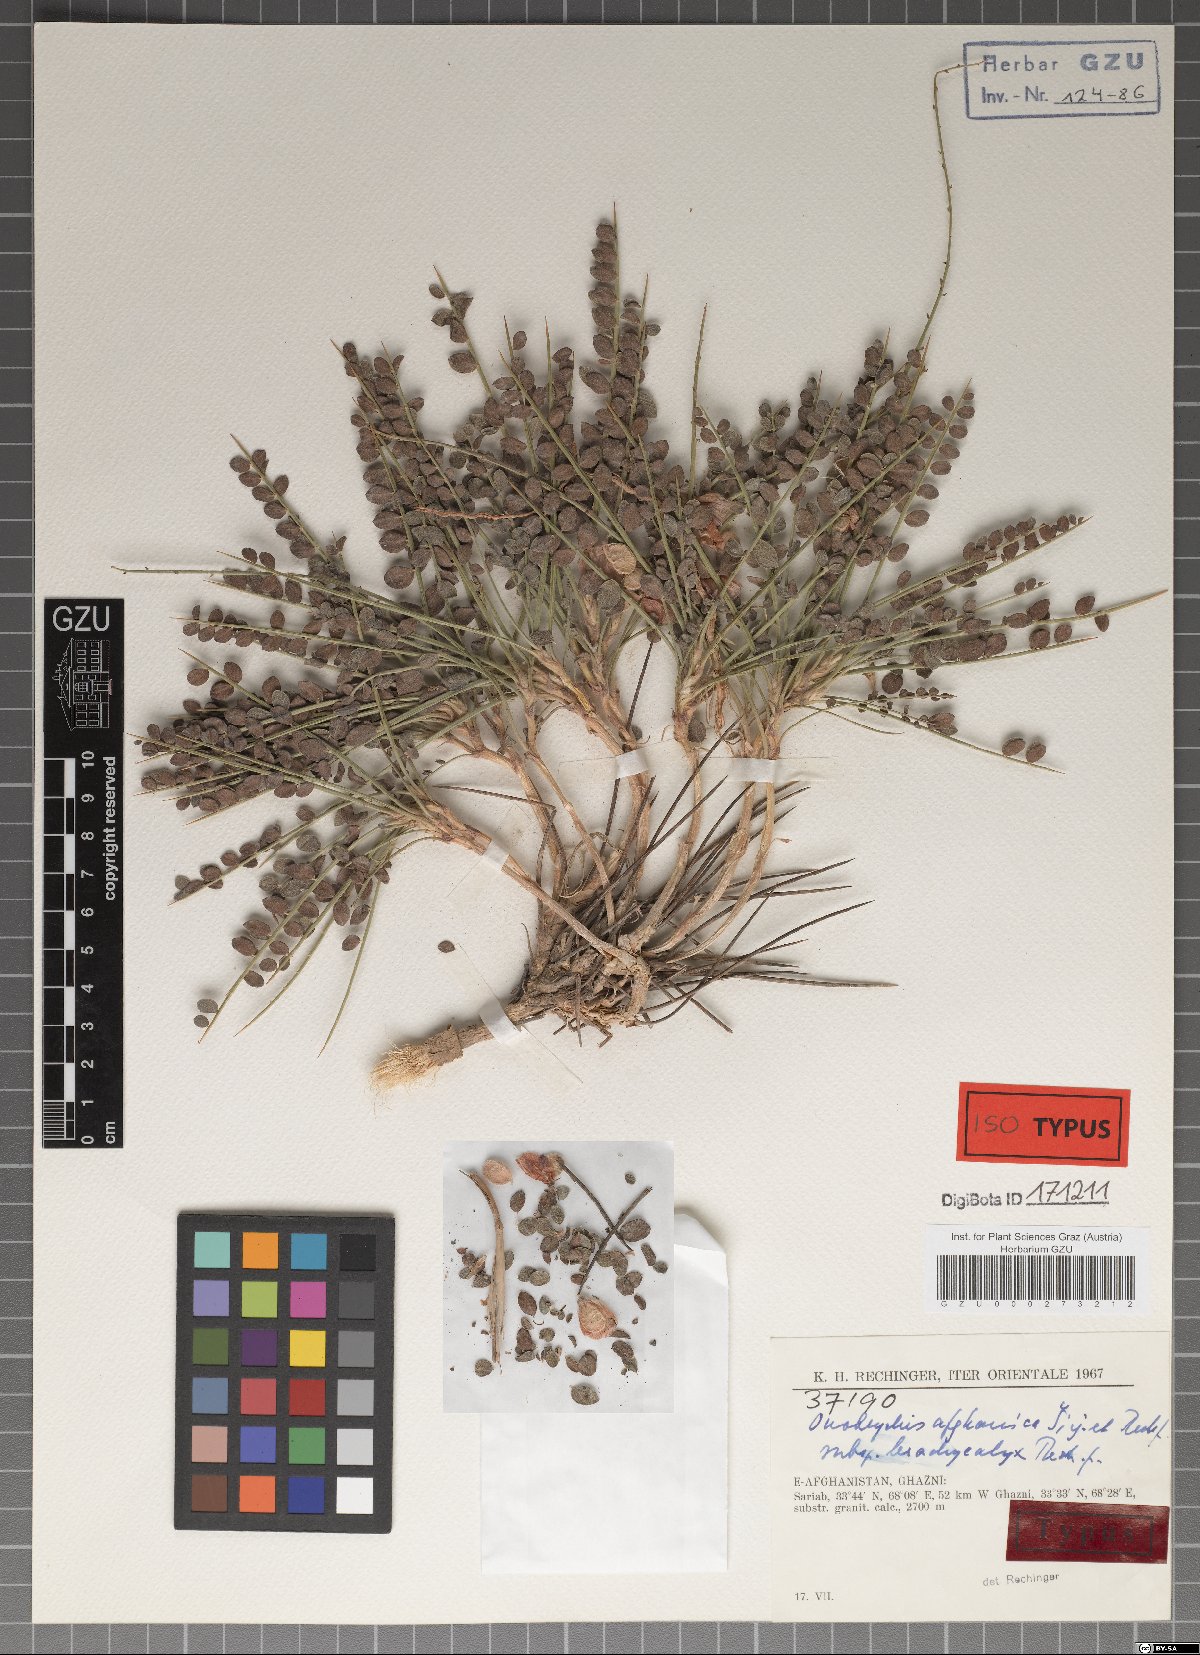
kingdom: Plantae
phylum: Tracheophyta
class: Magnoliopsida
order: Fabales
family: Fabaceae
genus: Onobrychis
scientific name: Onobrychis afghanica
